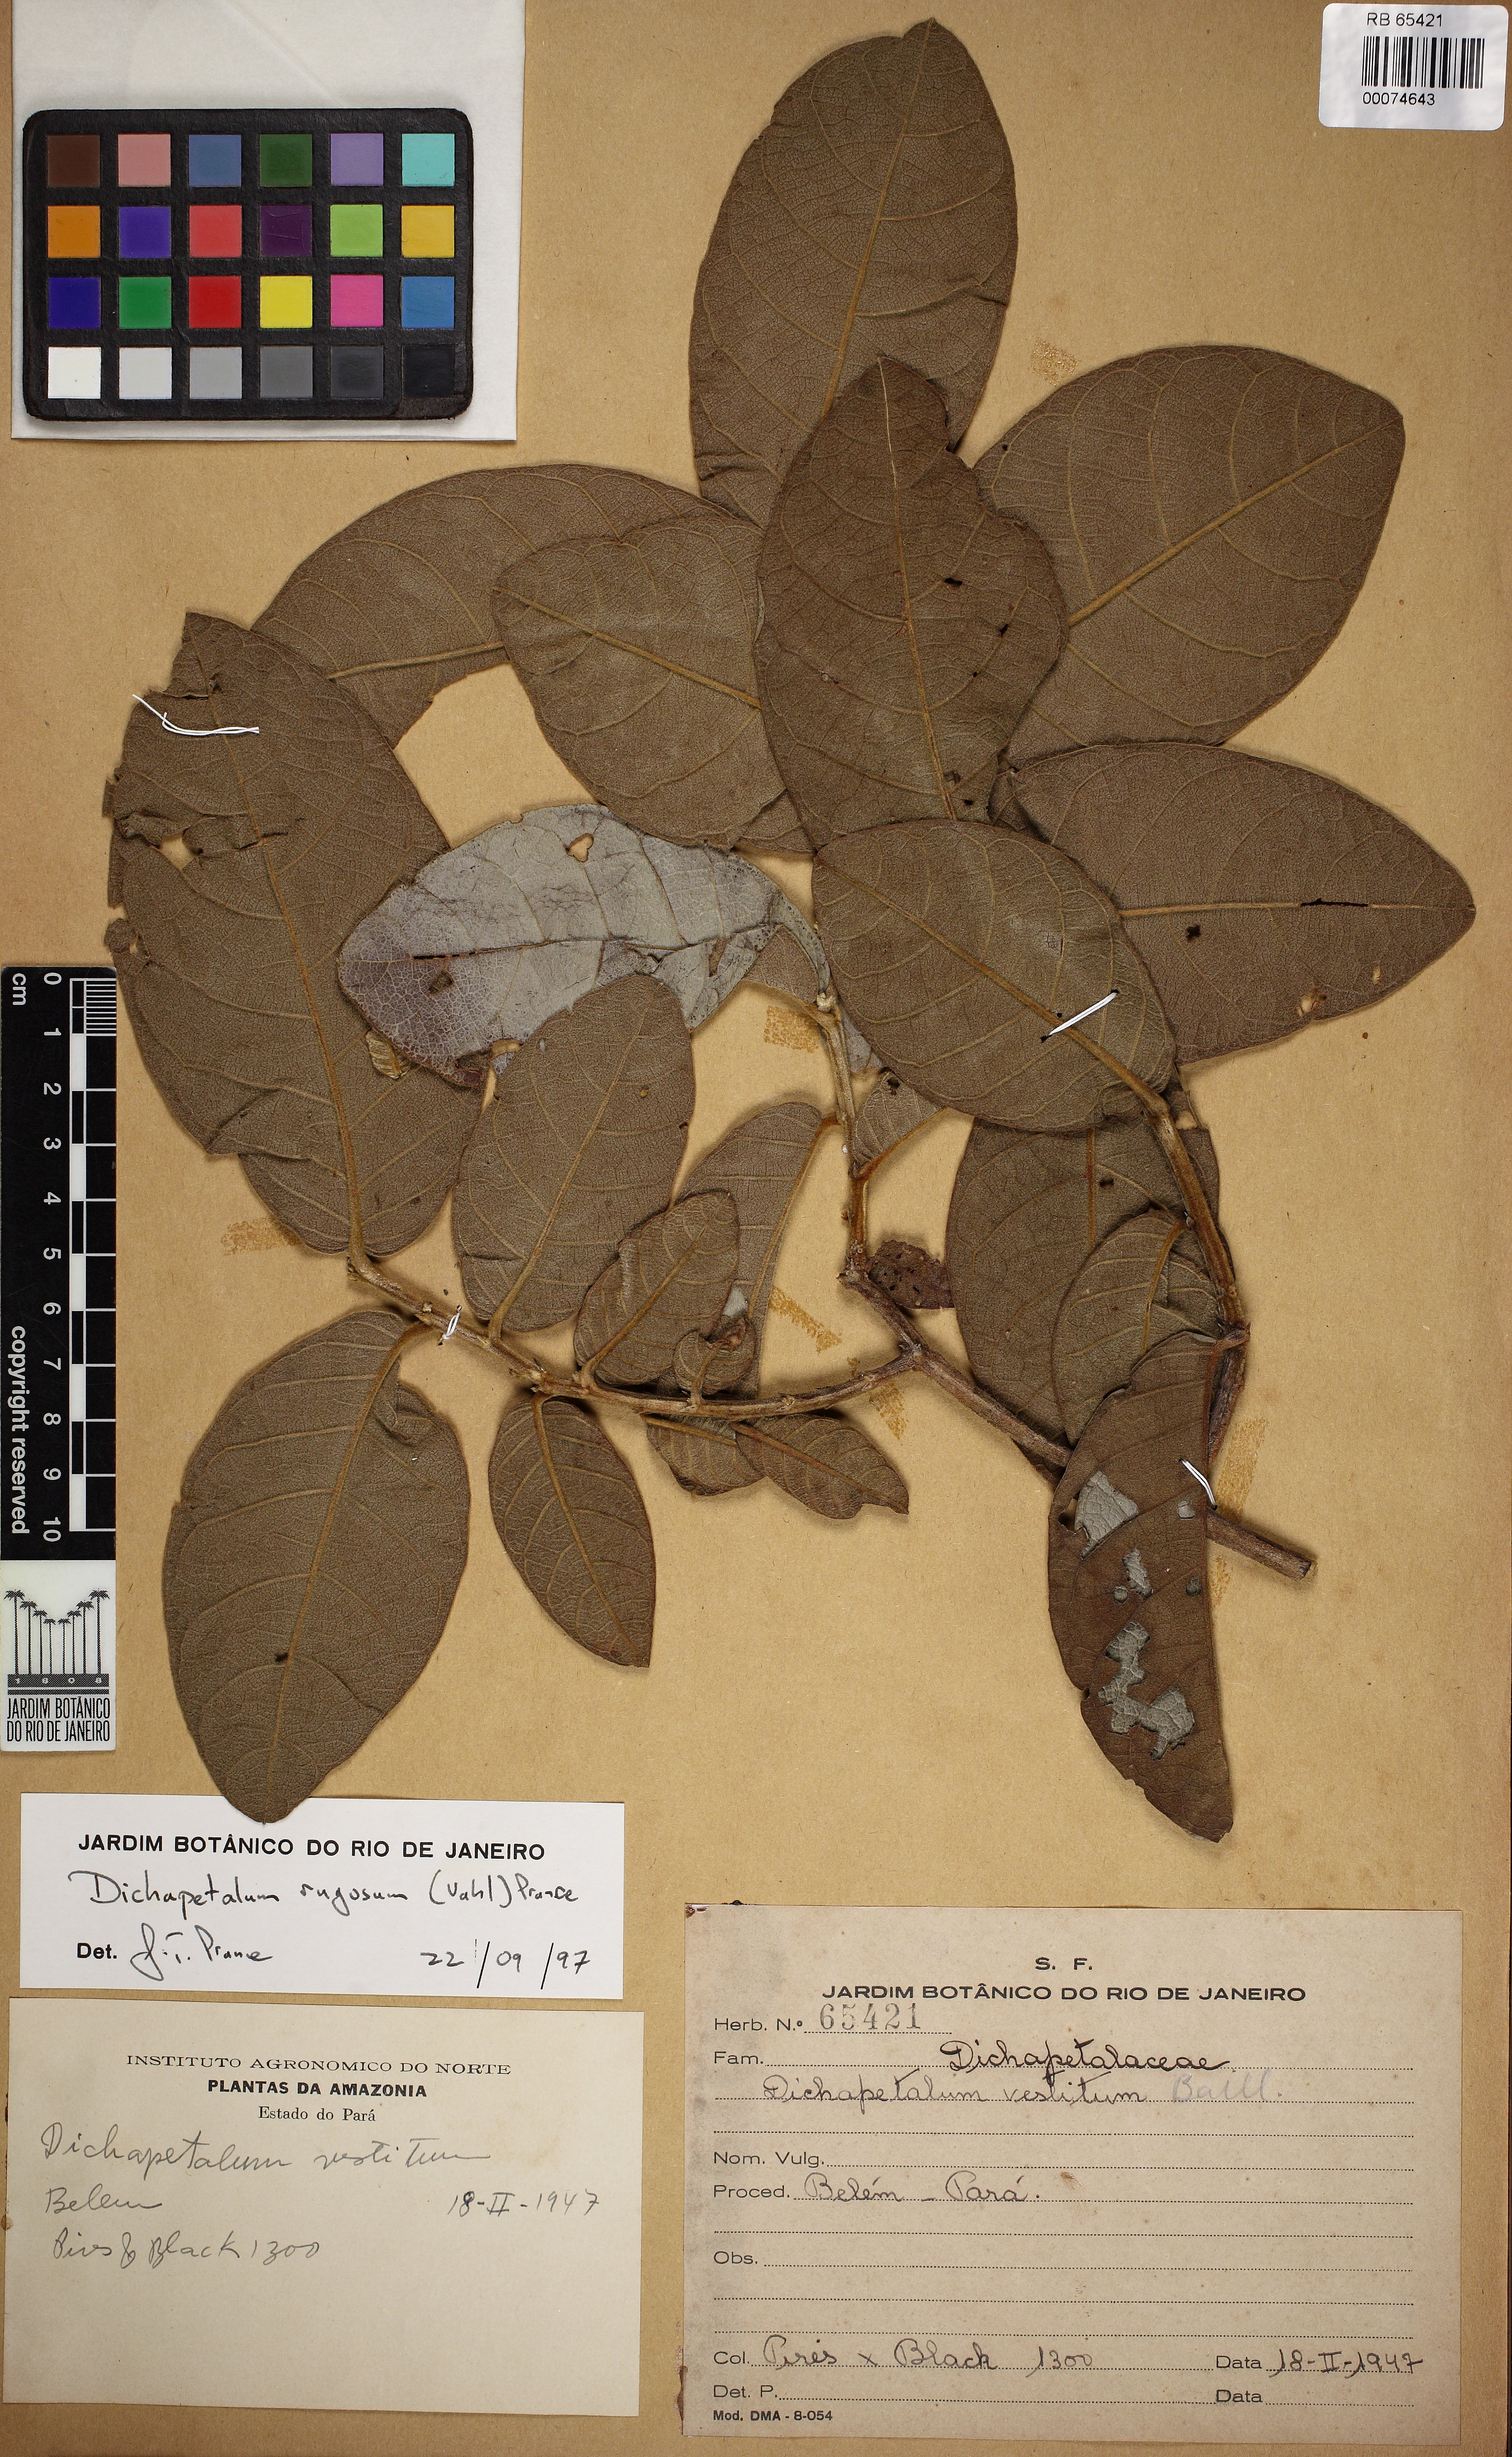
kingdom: Plantae
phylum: Tracheophyta
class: Magnoliopsida
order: Malpighiales
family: Dichapetalaceae
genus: Dichapetalum
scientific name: Dichapetalum rugosum
